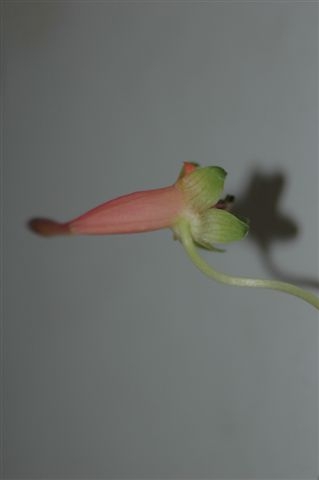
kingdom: Plantae
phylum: Tracheophyta
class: Magnoliopsida
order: Brassicales
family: Tropaeolaceae
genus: Tropaeolum
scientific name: Tropaeolum pentaphyllum
